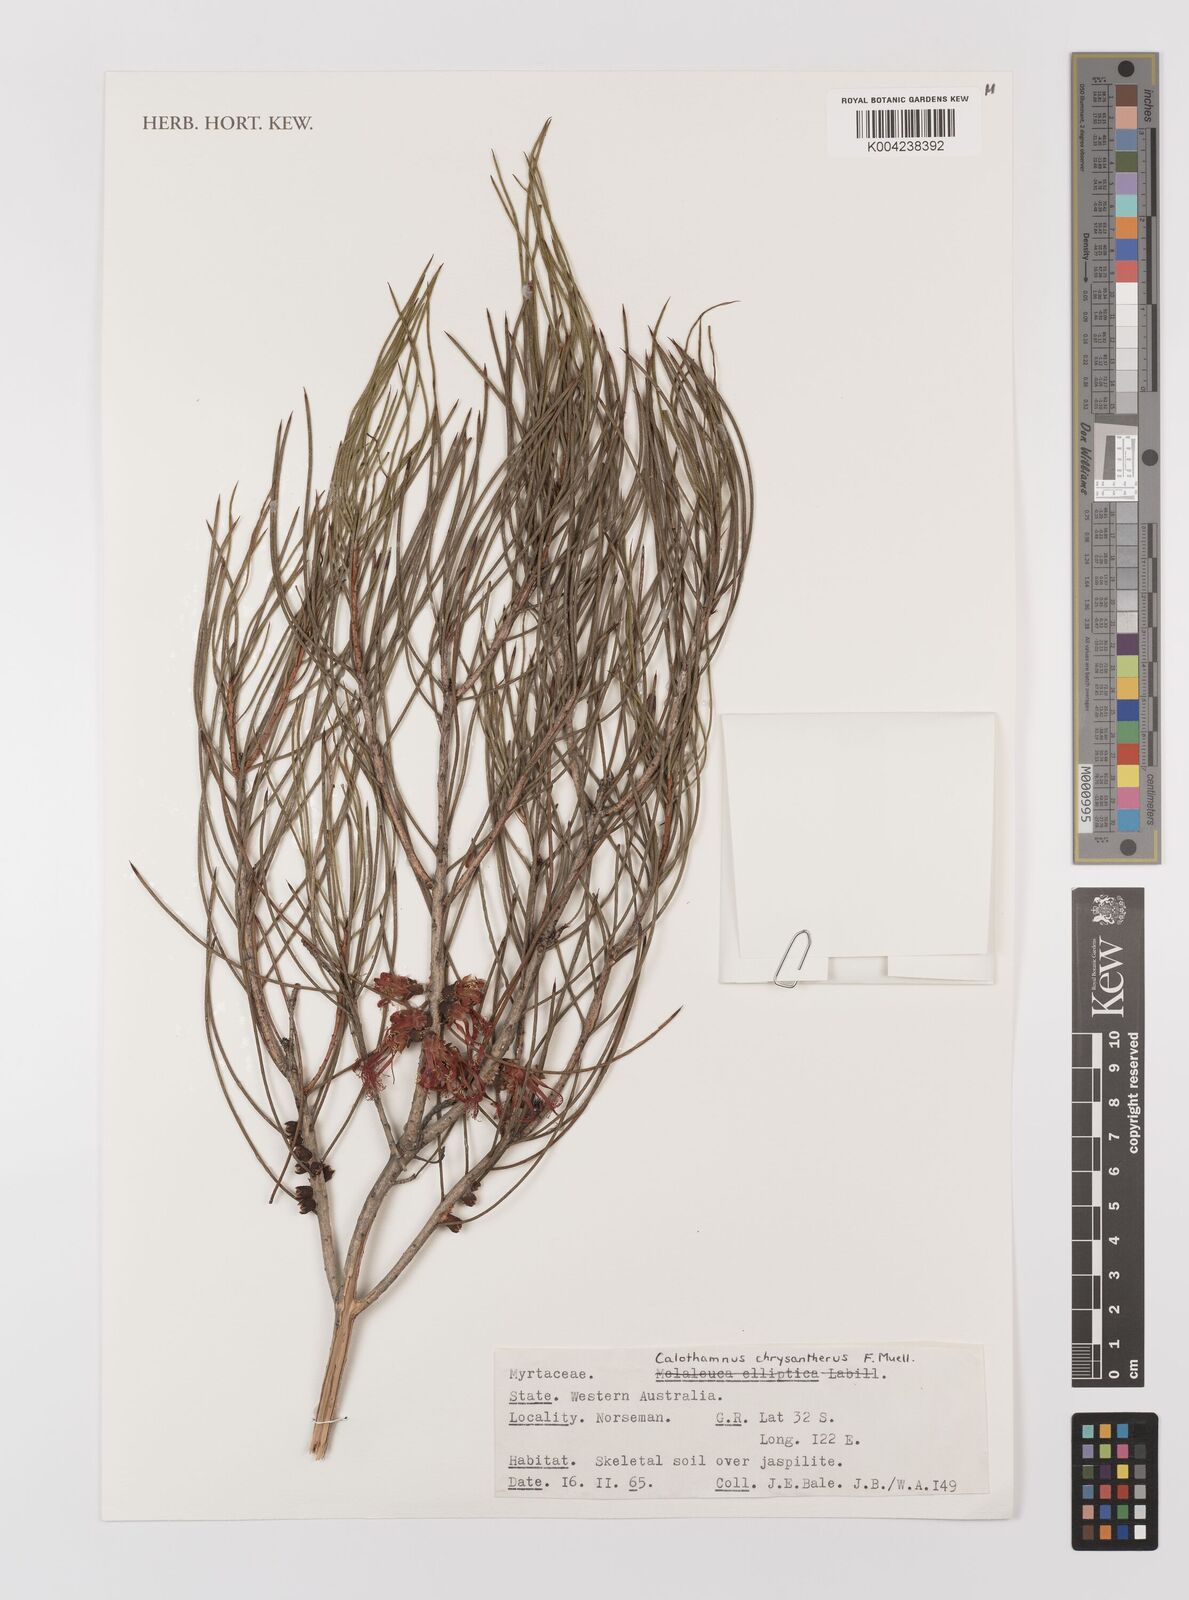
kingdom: Plantae
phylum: Tracheophyta
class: Magnoliopsida
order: Myrtales
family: Myrtaceae
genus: Melaleuca
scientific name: Melaleuca chrysantherea
